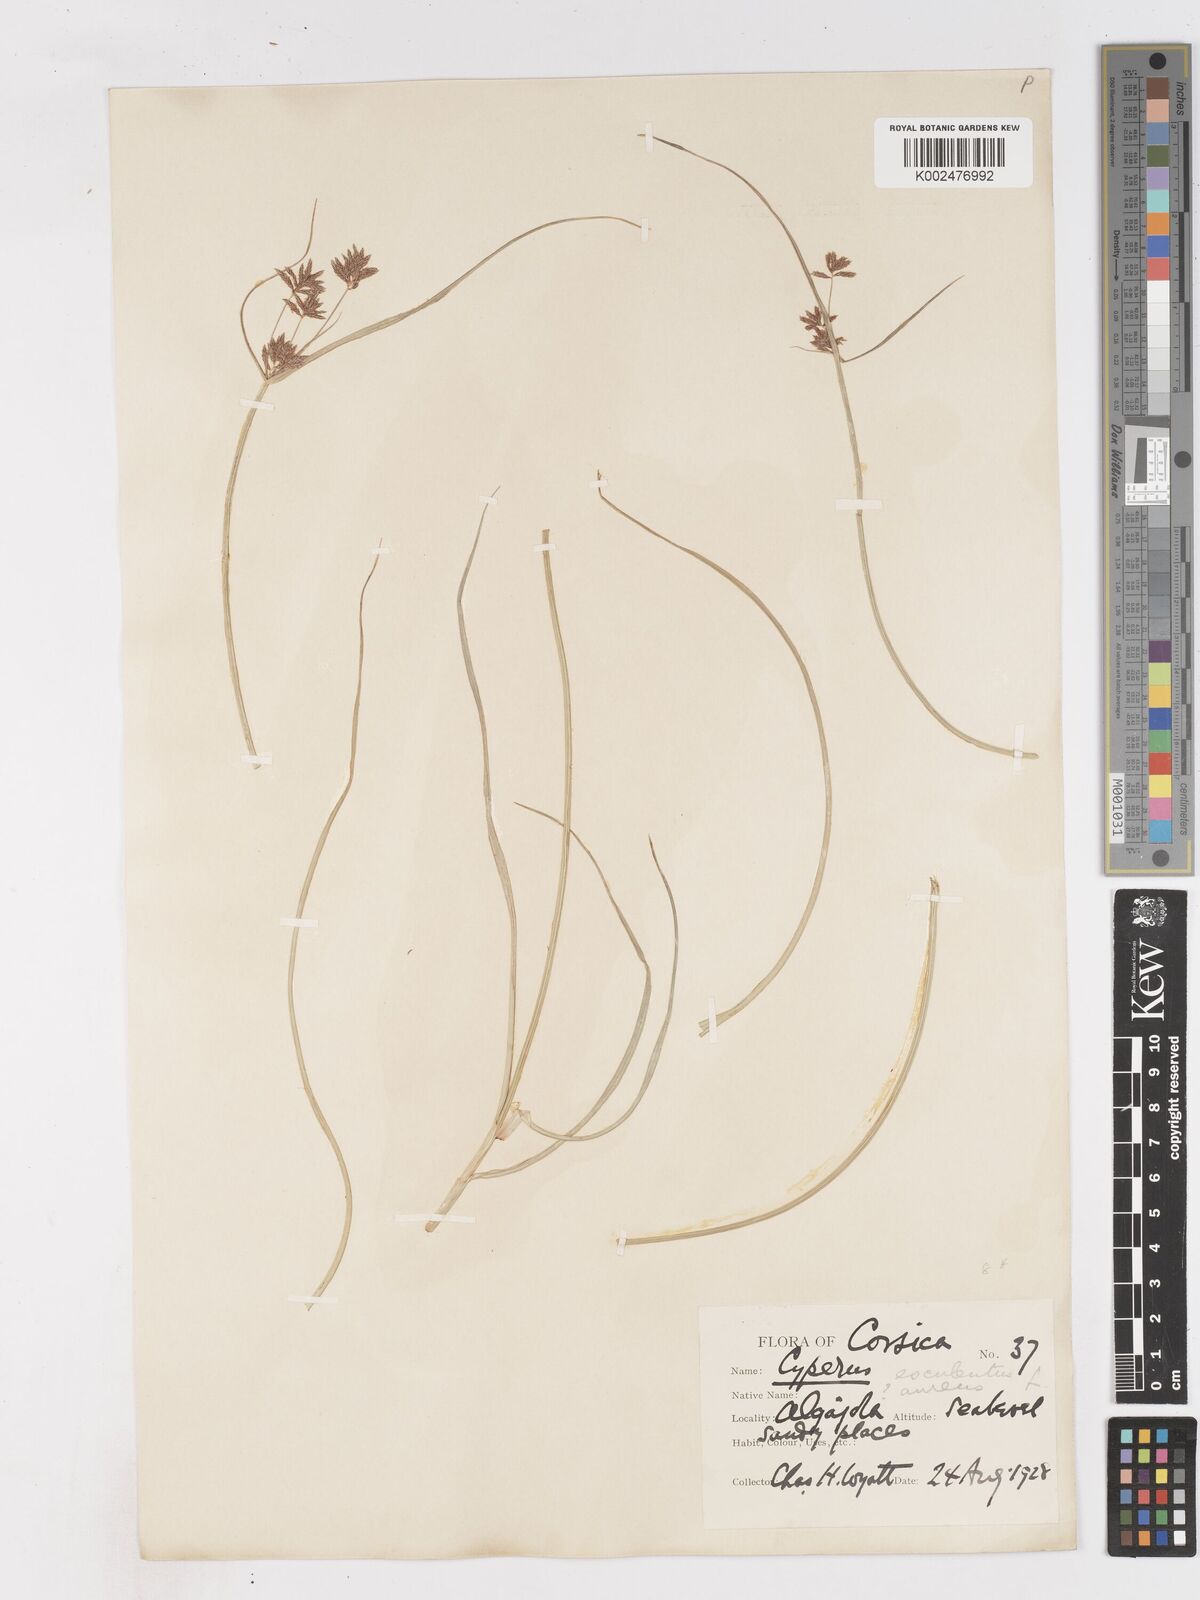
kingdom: Plantae
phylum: Tracheophyta
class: Liliopsida
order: Poales
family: Cyperaceae
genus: Cyperus
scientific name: Cyperus esculentus
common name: Yellow nutsedge
